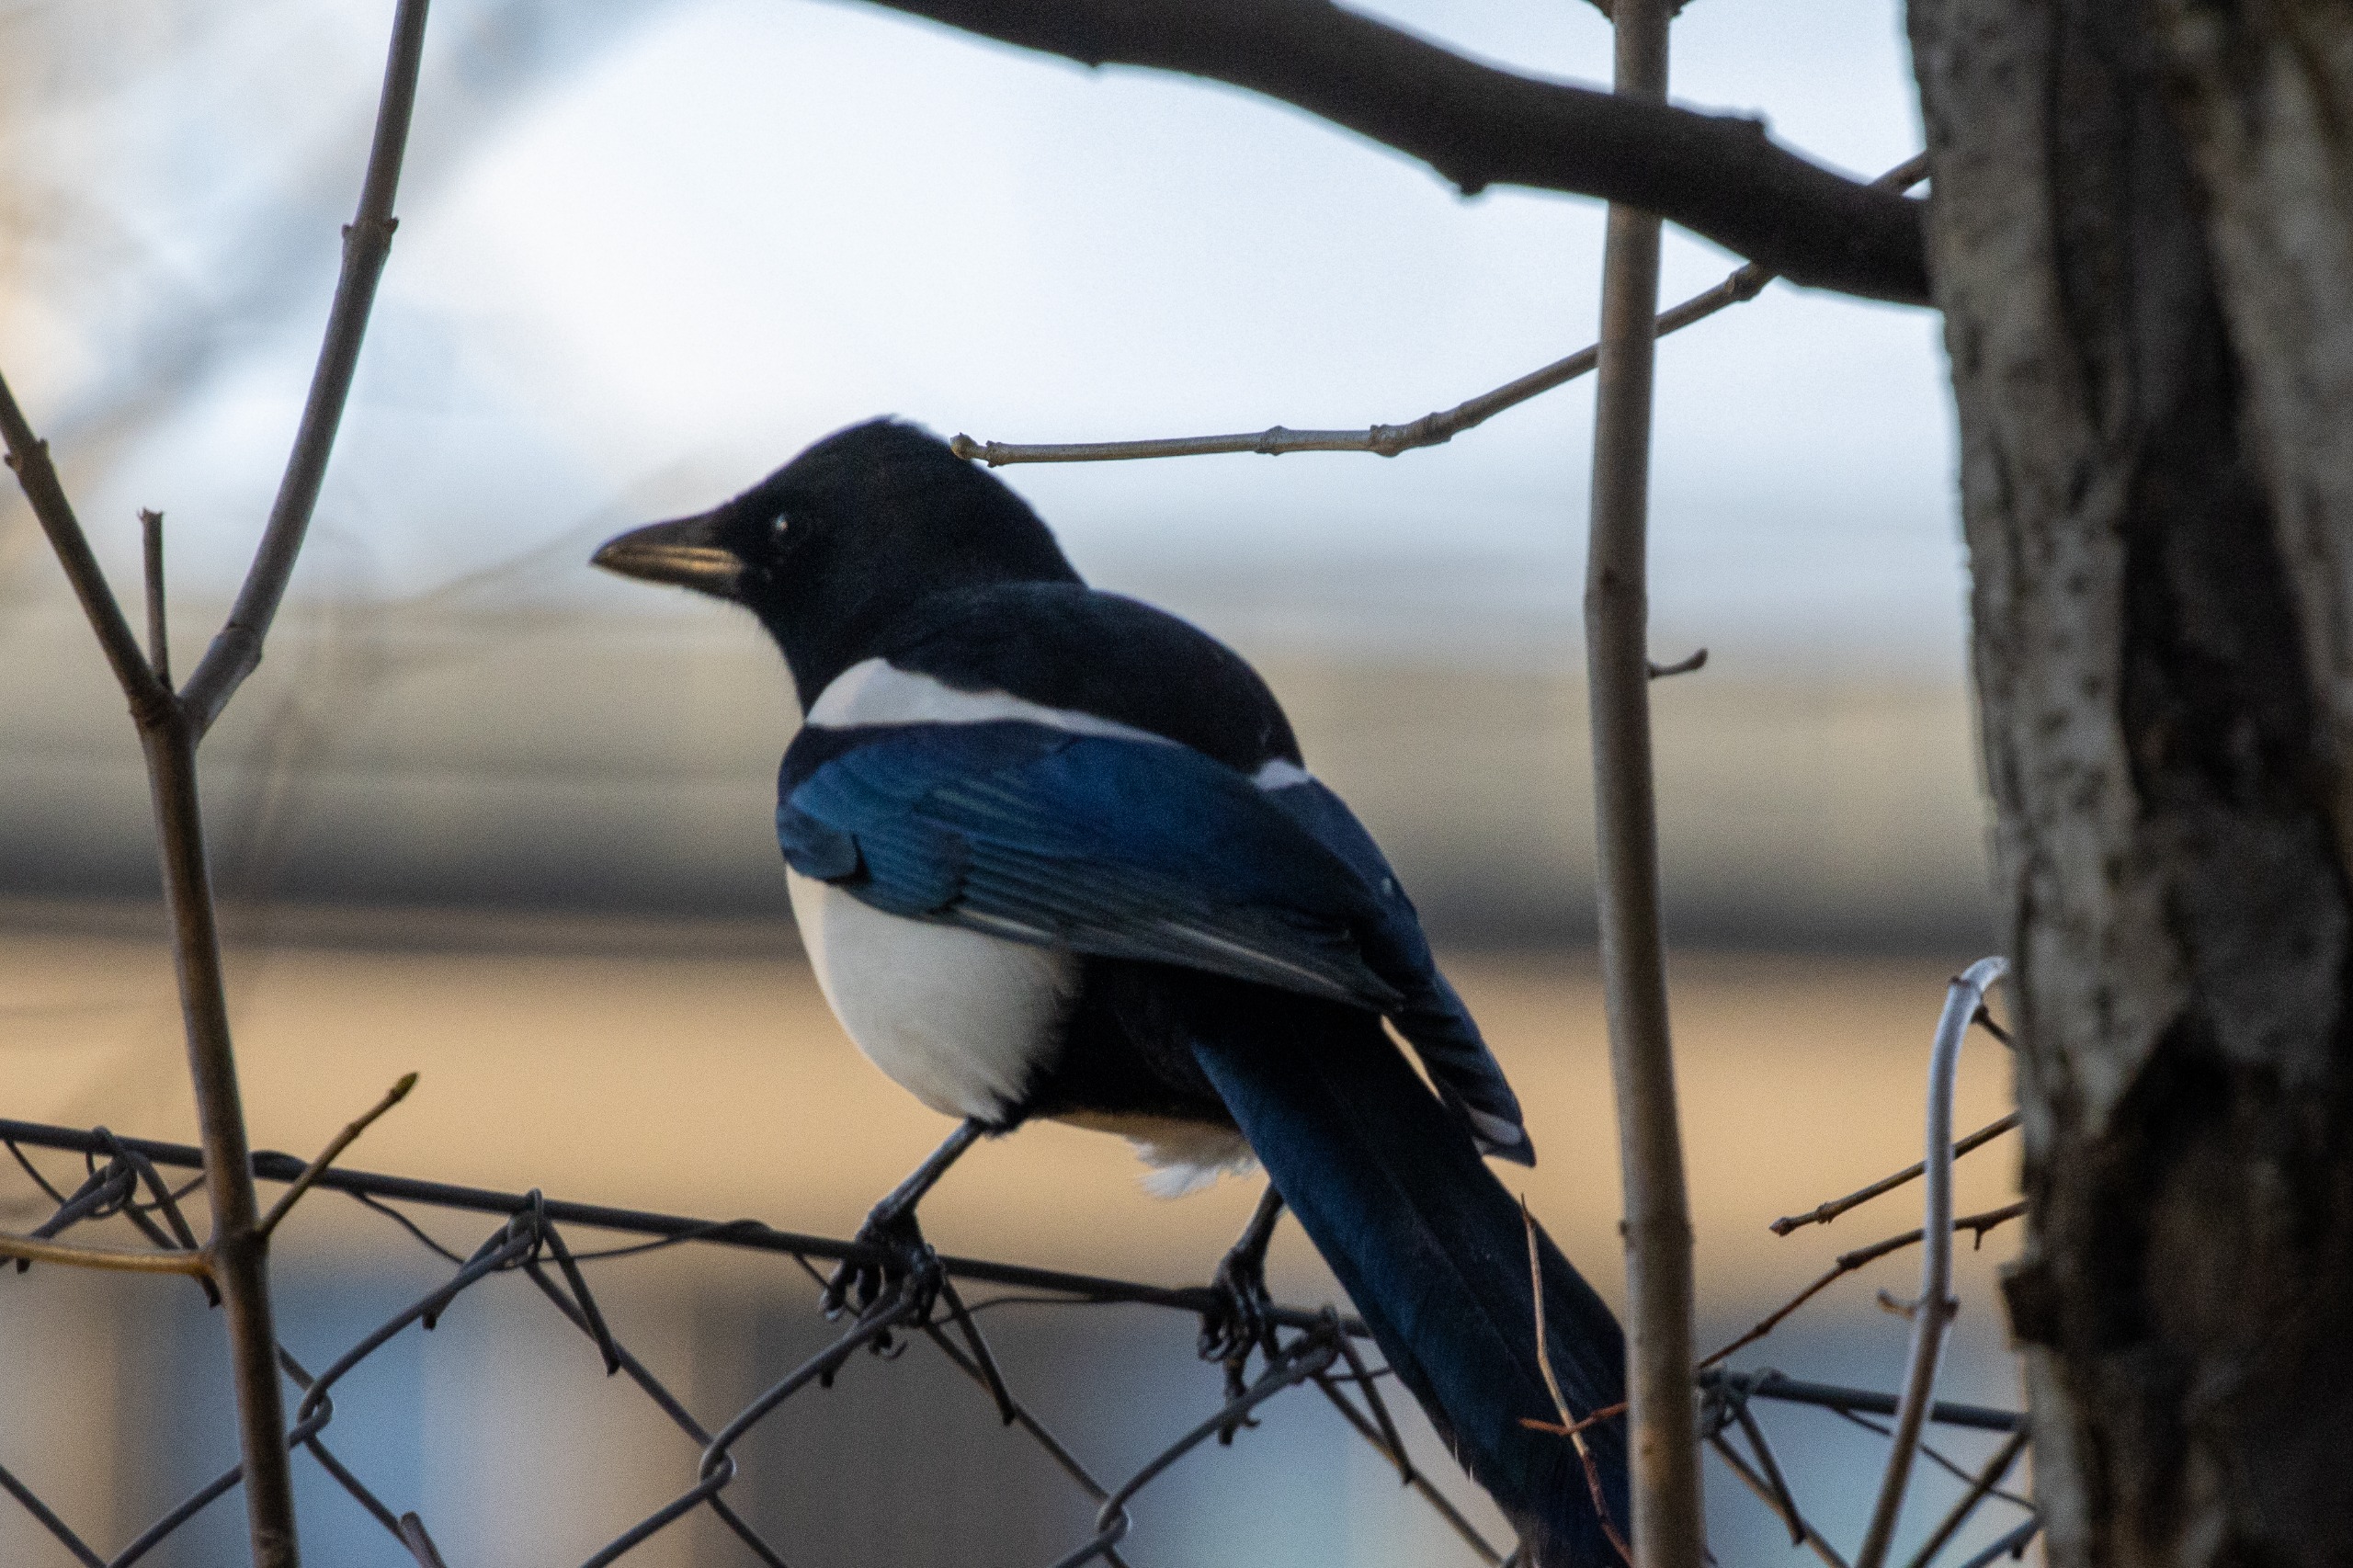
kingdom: Animalia
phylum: Chordata
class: Aves
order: Passeriformes
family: Corvidae
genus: Pica
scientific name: Pica pica
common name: Husskade
